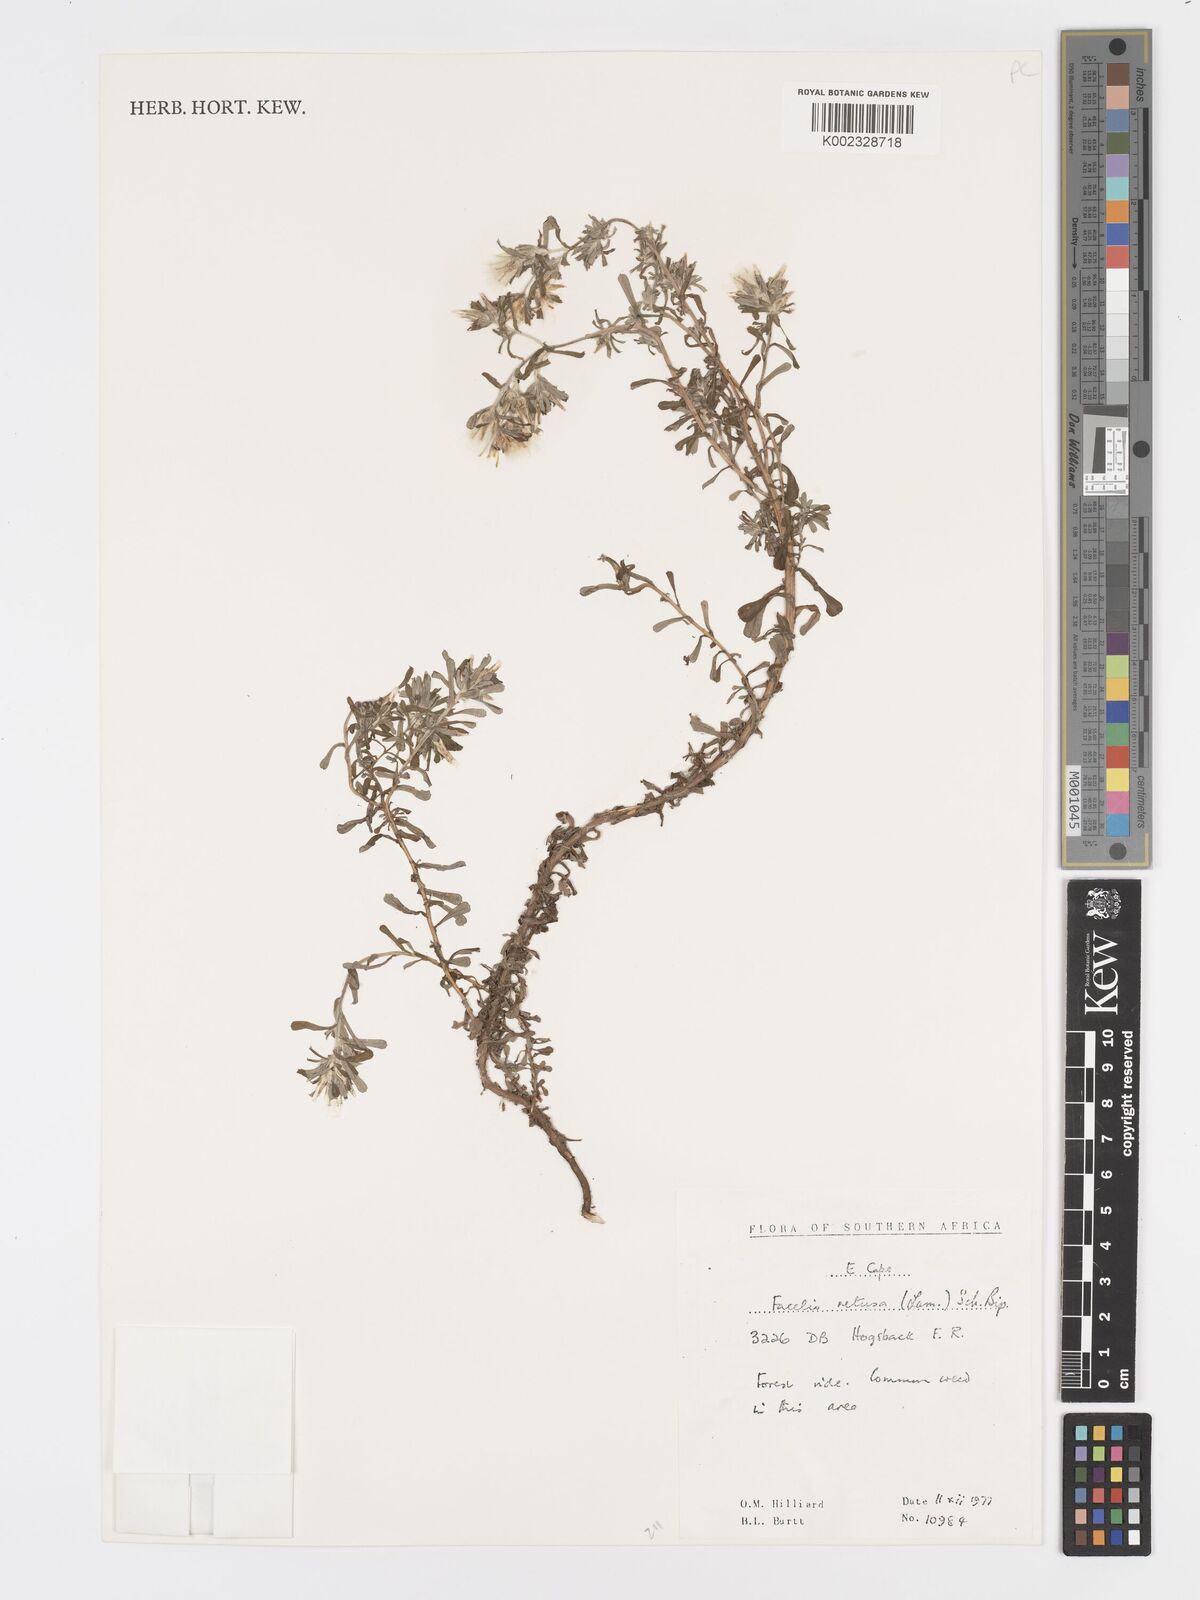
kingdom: Plantae
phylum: Tracheophyta
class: Magnoliopsida
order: Asterales
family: Asteraceae
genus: Facelis
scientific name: Facelis retusa
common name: Annual trampweed
